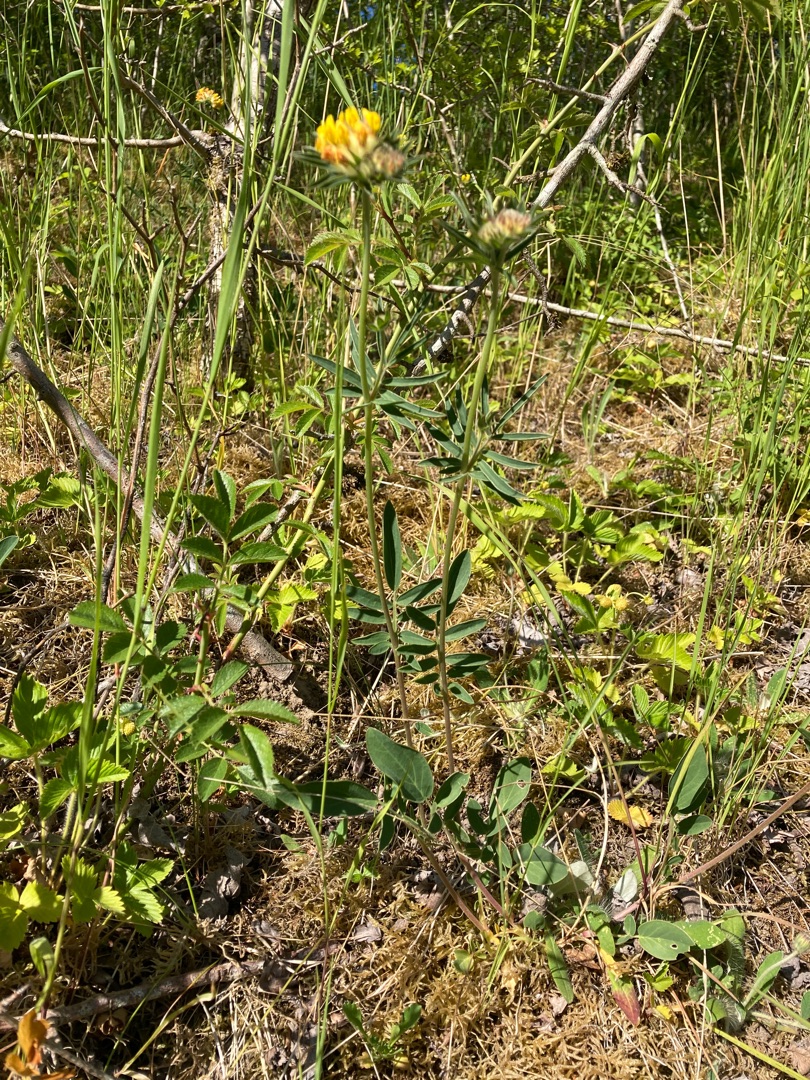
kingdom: Plantae
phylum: Tracheophyta
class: Magnoliopsida
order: Fabales
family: Fabaceae
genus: Anthyllis
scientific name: Anthyllis vulneraria
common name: Rundbælg
